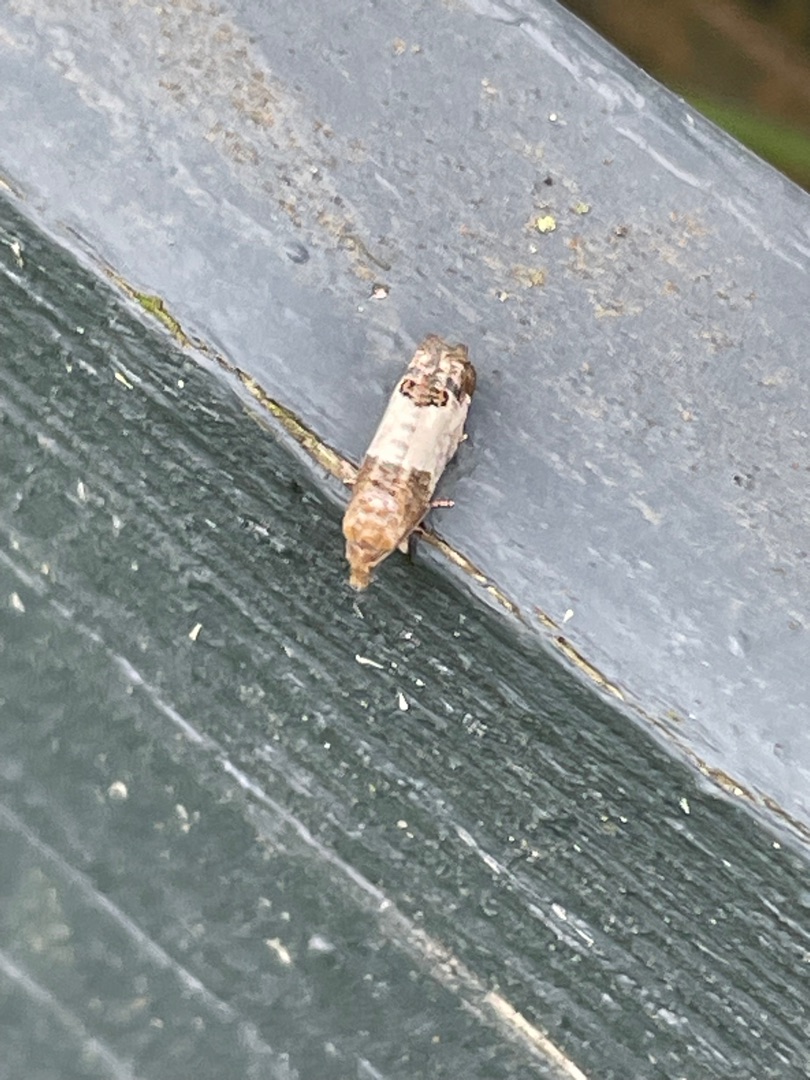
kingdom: Animalia
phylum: Arthropoda
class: Insecta
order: Lepidoptera
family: Tortricidae
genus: Spilonota
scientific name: Spilonota ocellana
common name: Rød knopvikler
